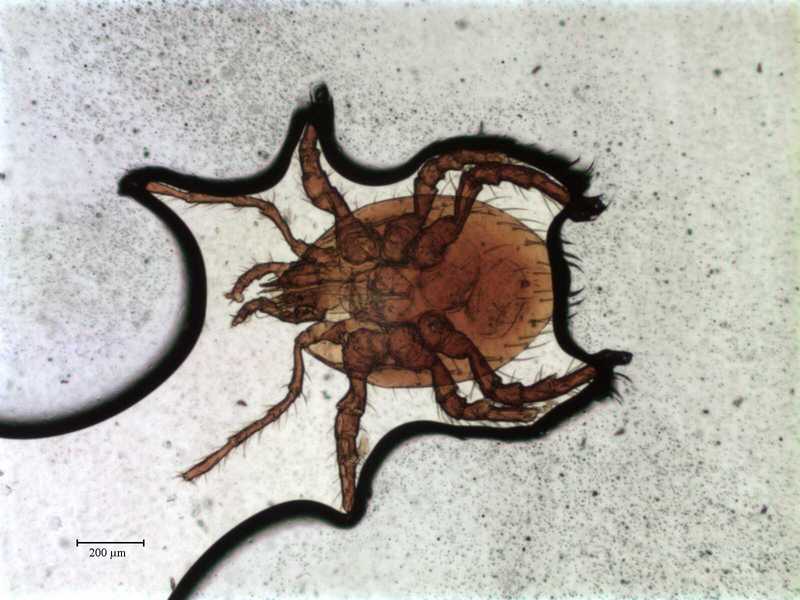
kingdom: Animalia
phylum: Arthropoda
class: Arachnida
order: Mesostigmata
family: Celaenopsidae
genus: Celaenopsis
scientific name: Celaenopsis marquesana
